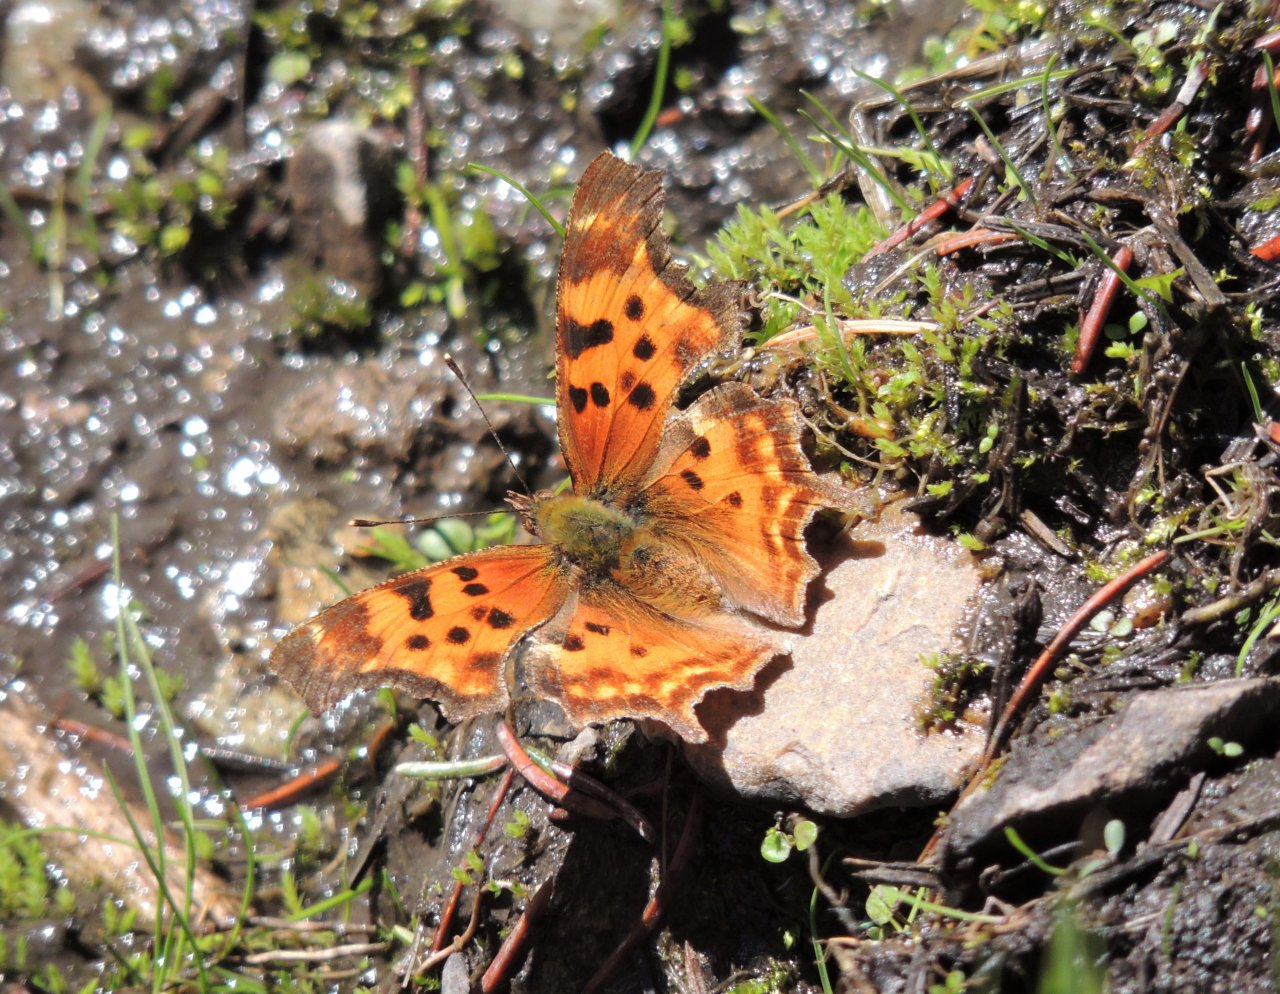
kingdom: Animalia
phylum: Arthropoda
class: Insecta
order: Lepidoptera
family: Nymphalidae
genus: Polygonia
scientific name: Polygonia satyrus
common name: Satyr Comma
